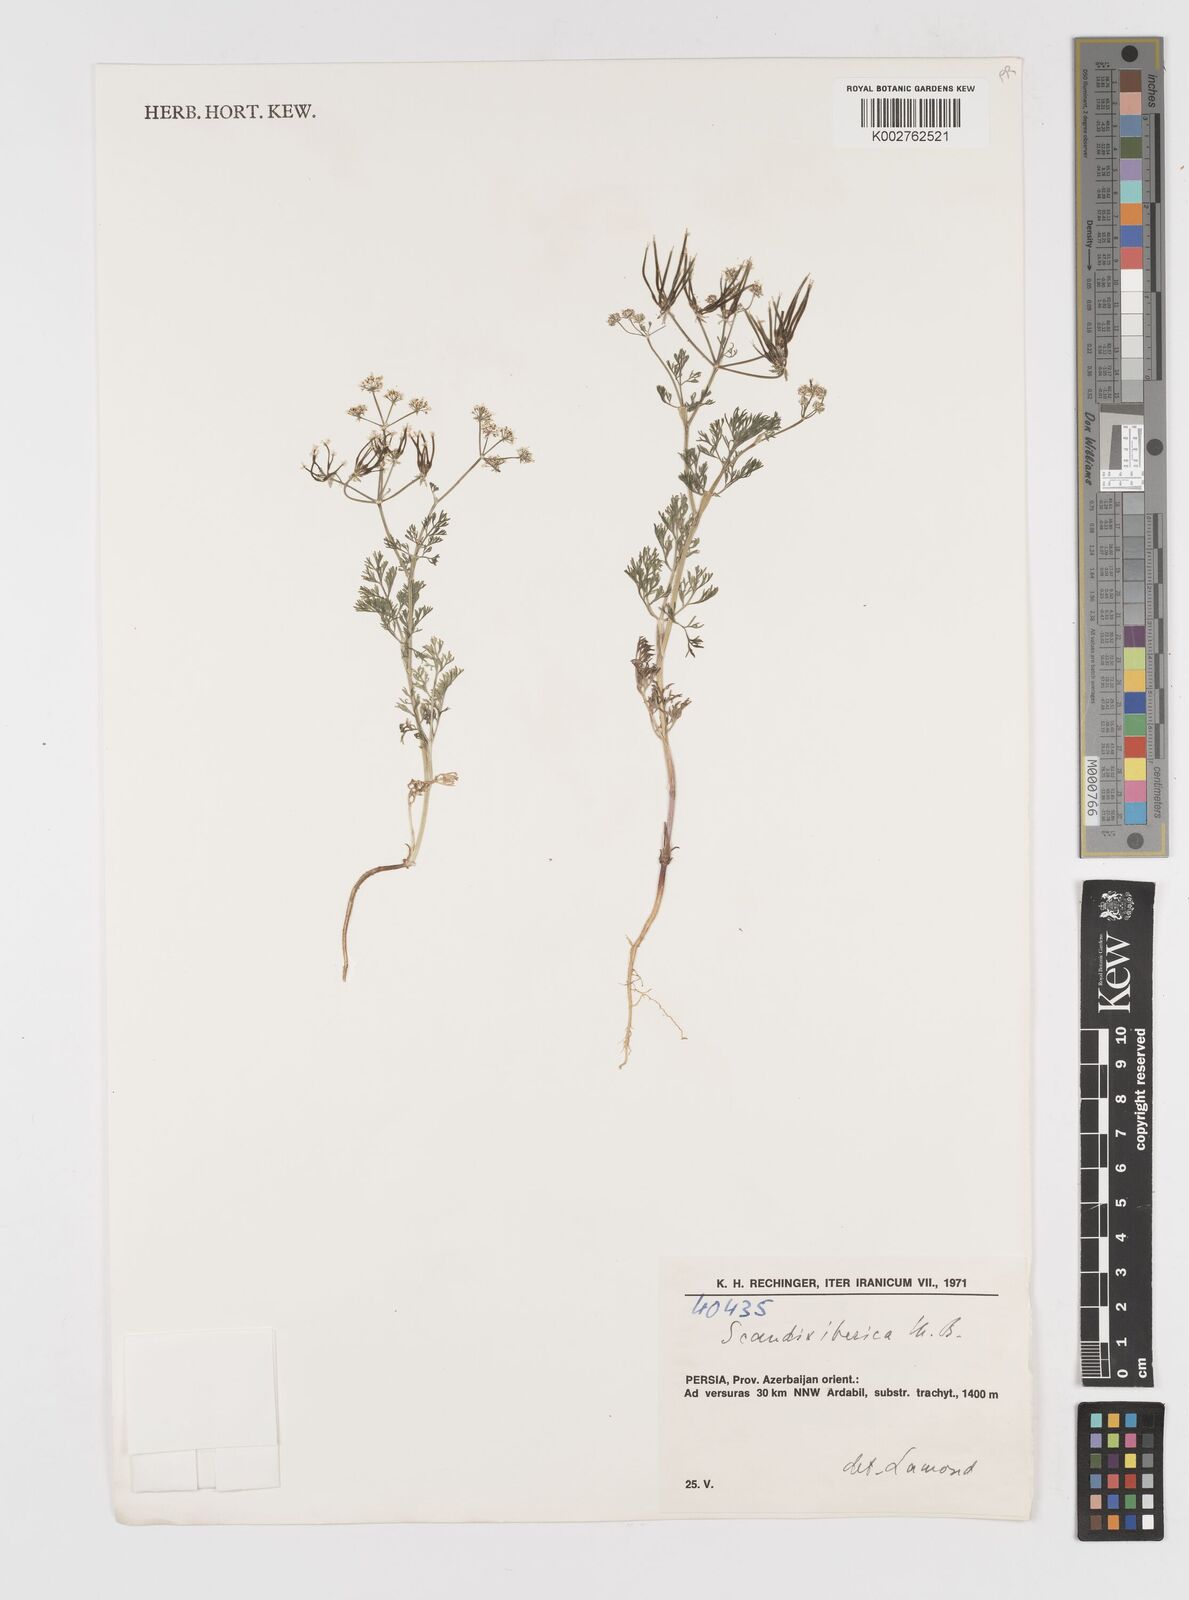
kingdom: Plantae
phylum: Tracheophyta
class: Magnoliopsida
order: Apiales
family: Apiaceae
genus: Scandix
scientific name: Scandix iberica
